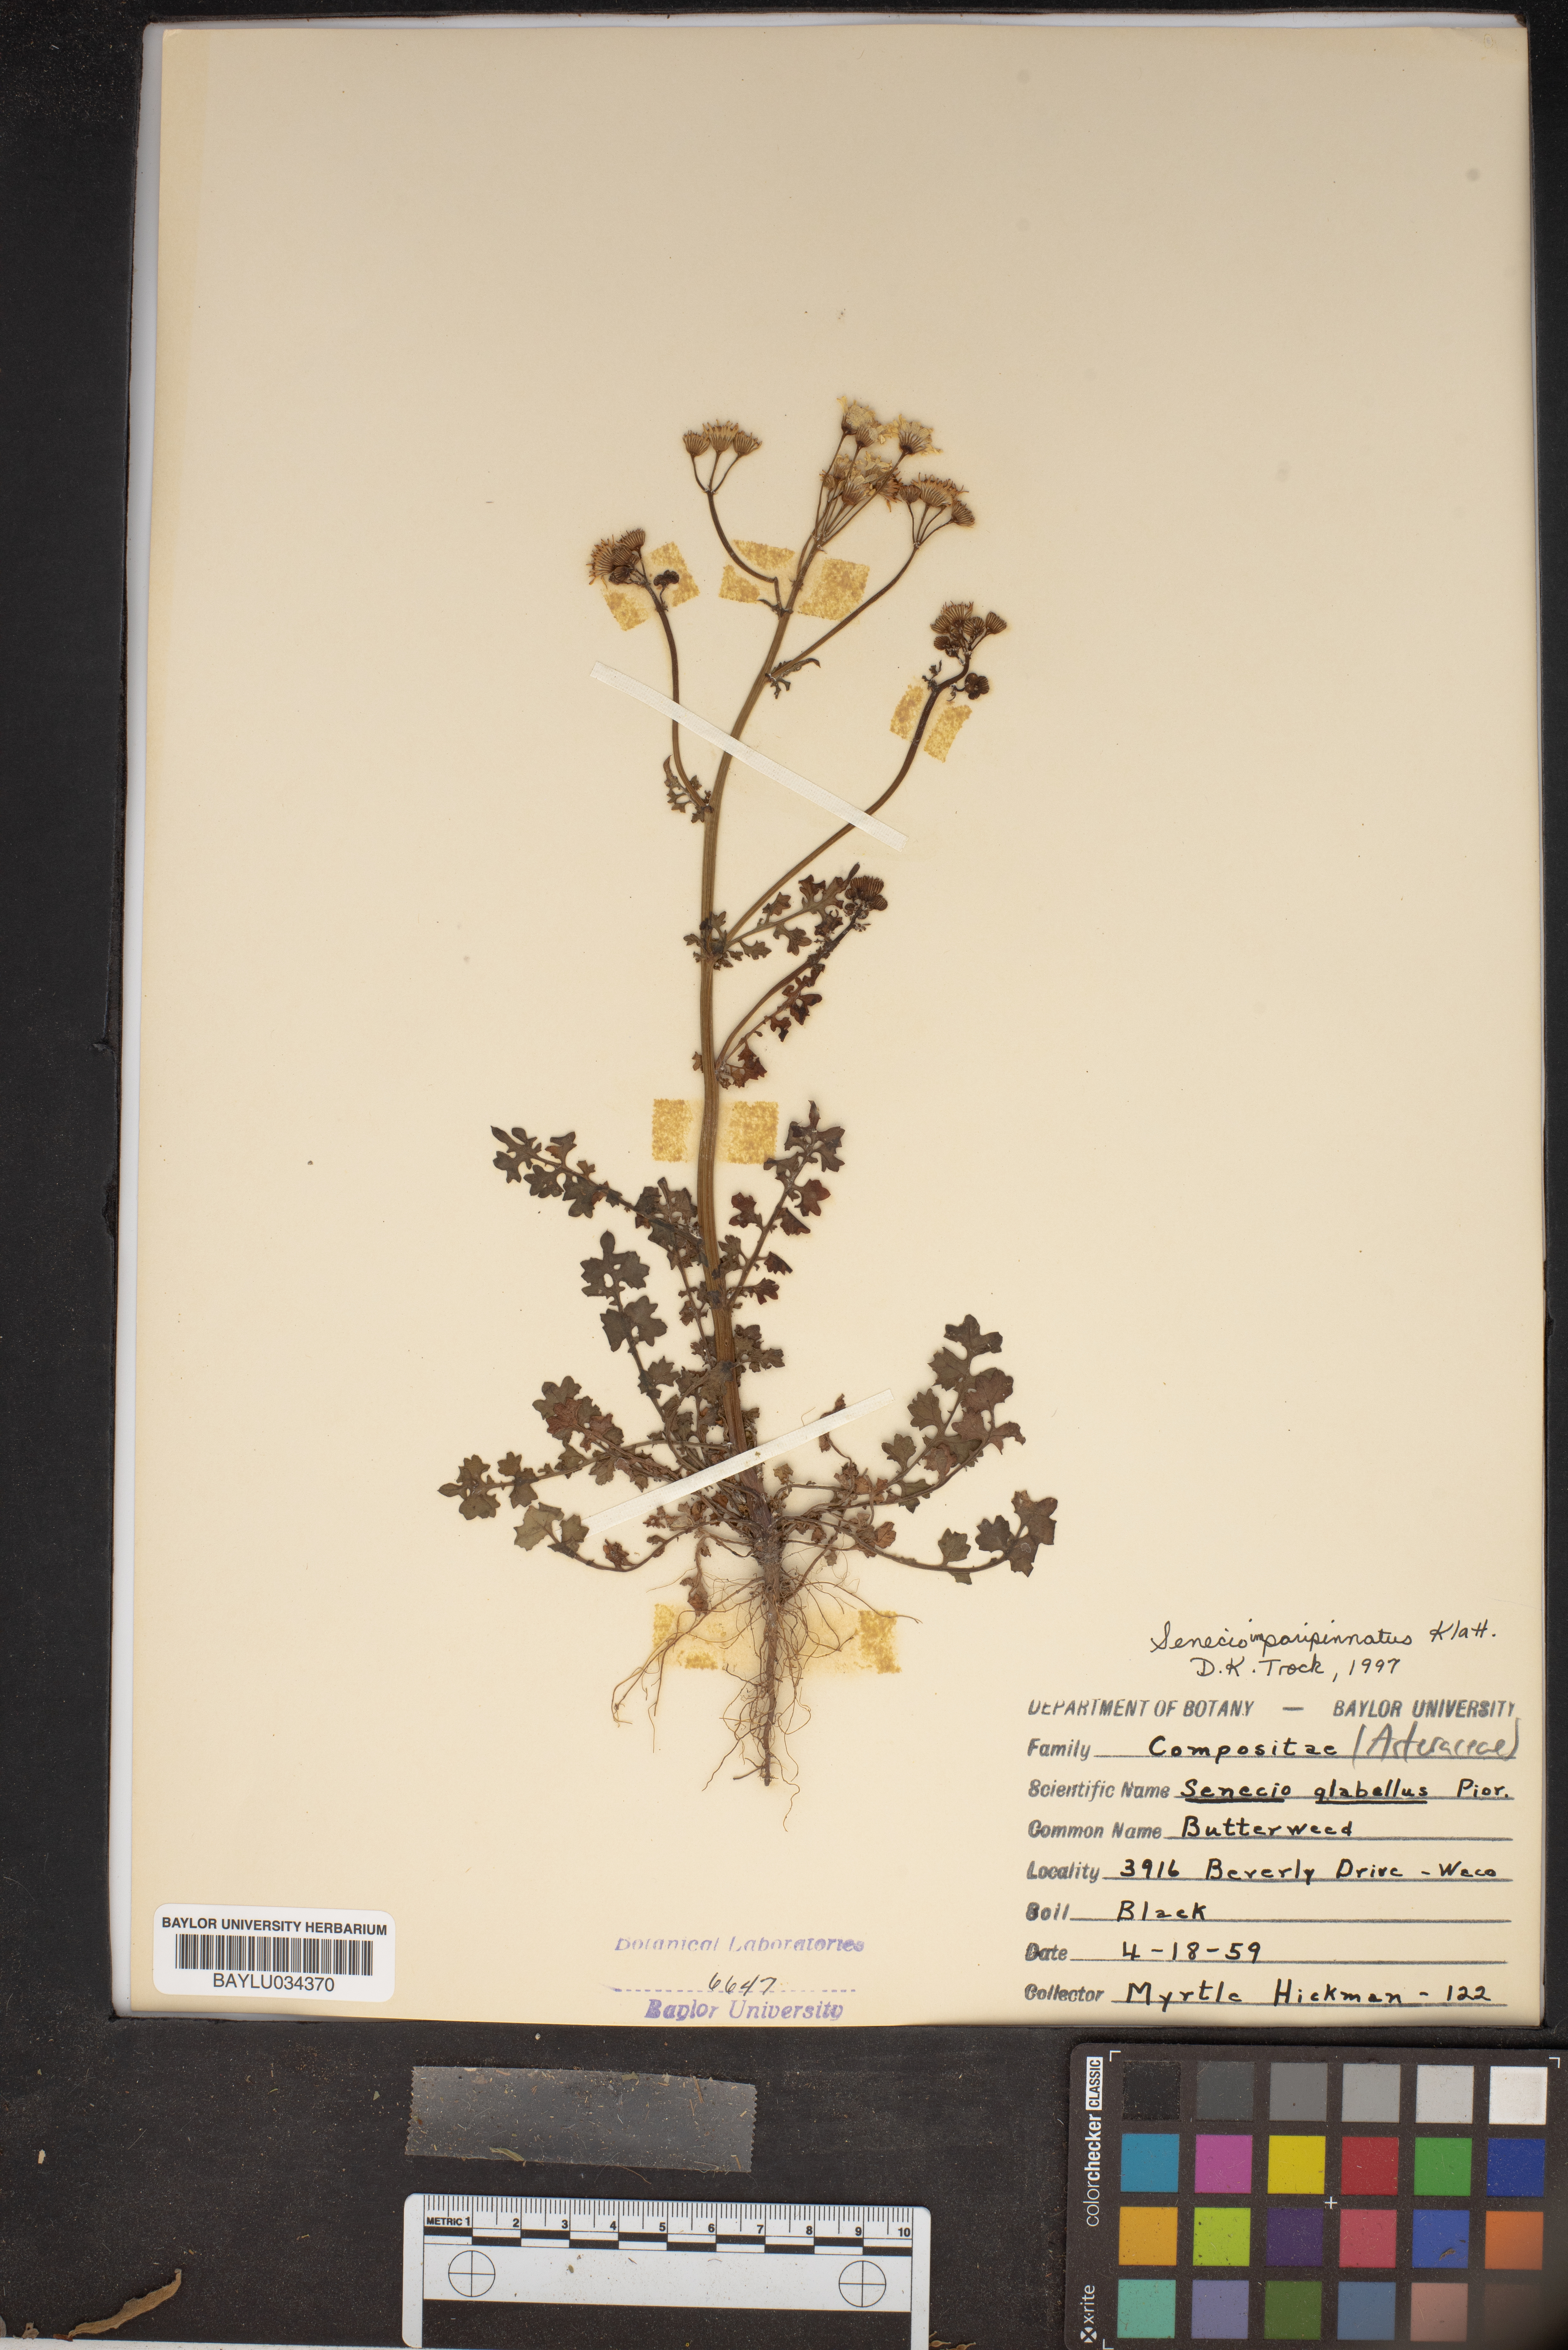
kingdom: Plantae
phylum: Tracheophyta
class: Magnoliopsida
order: Asterales
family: Asteraceae
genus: Packera
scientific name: Packera tampicana
